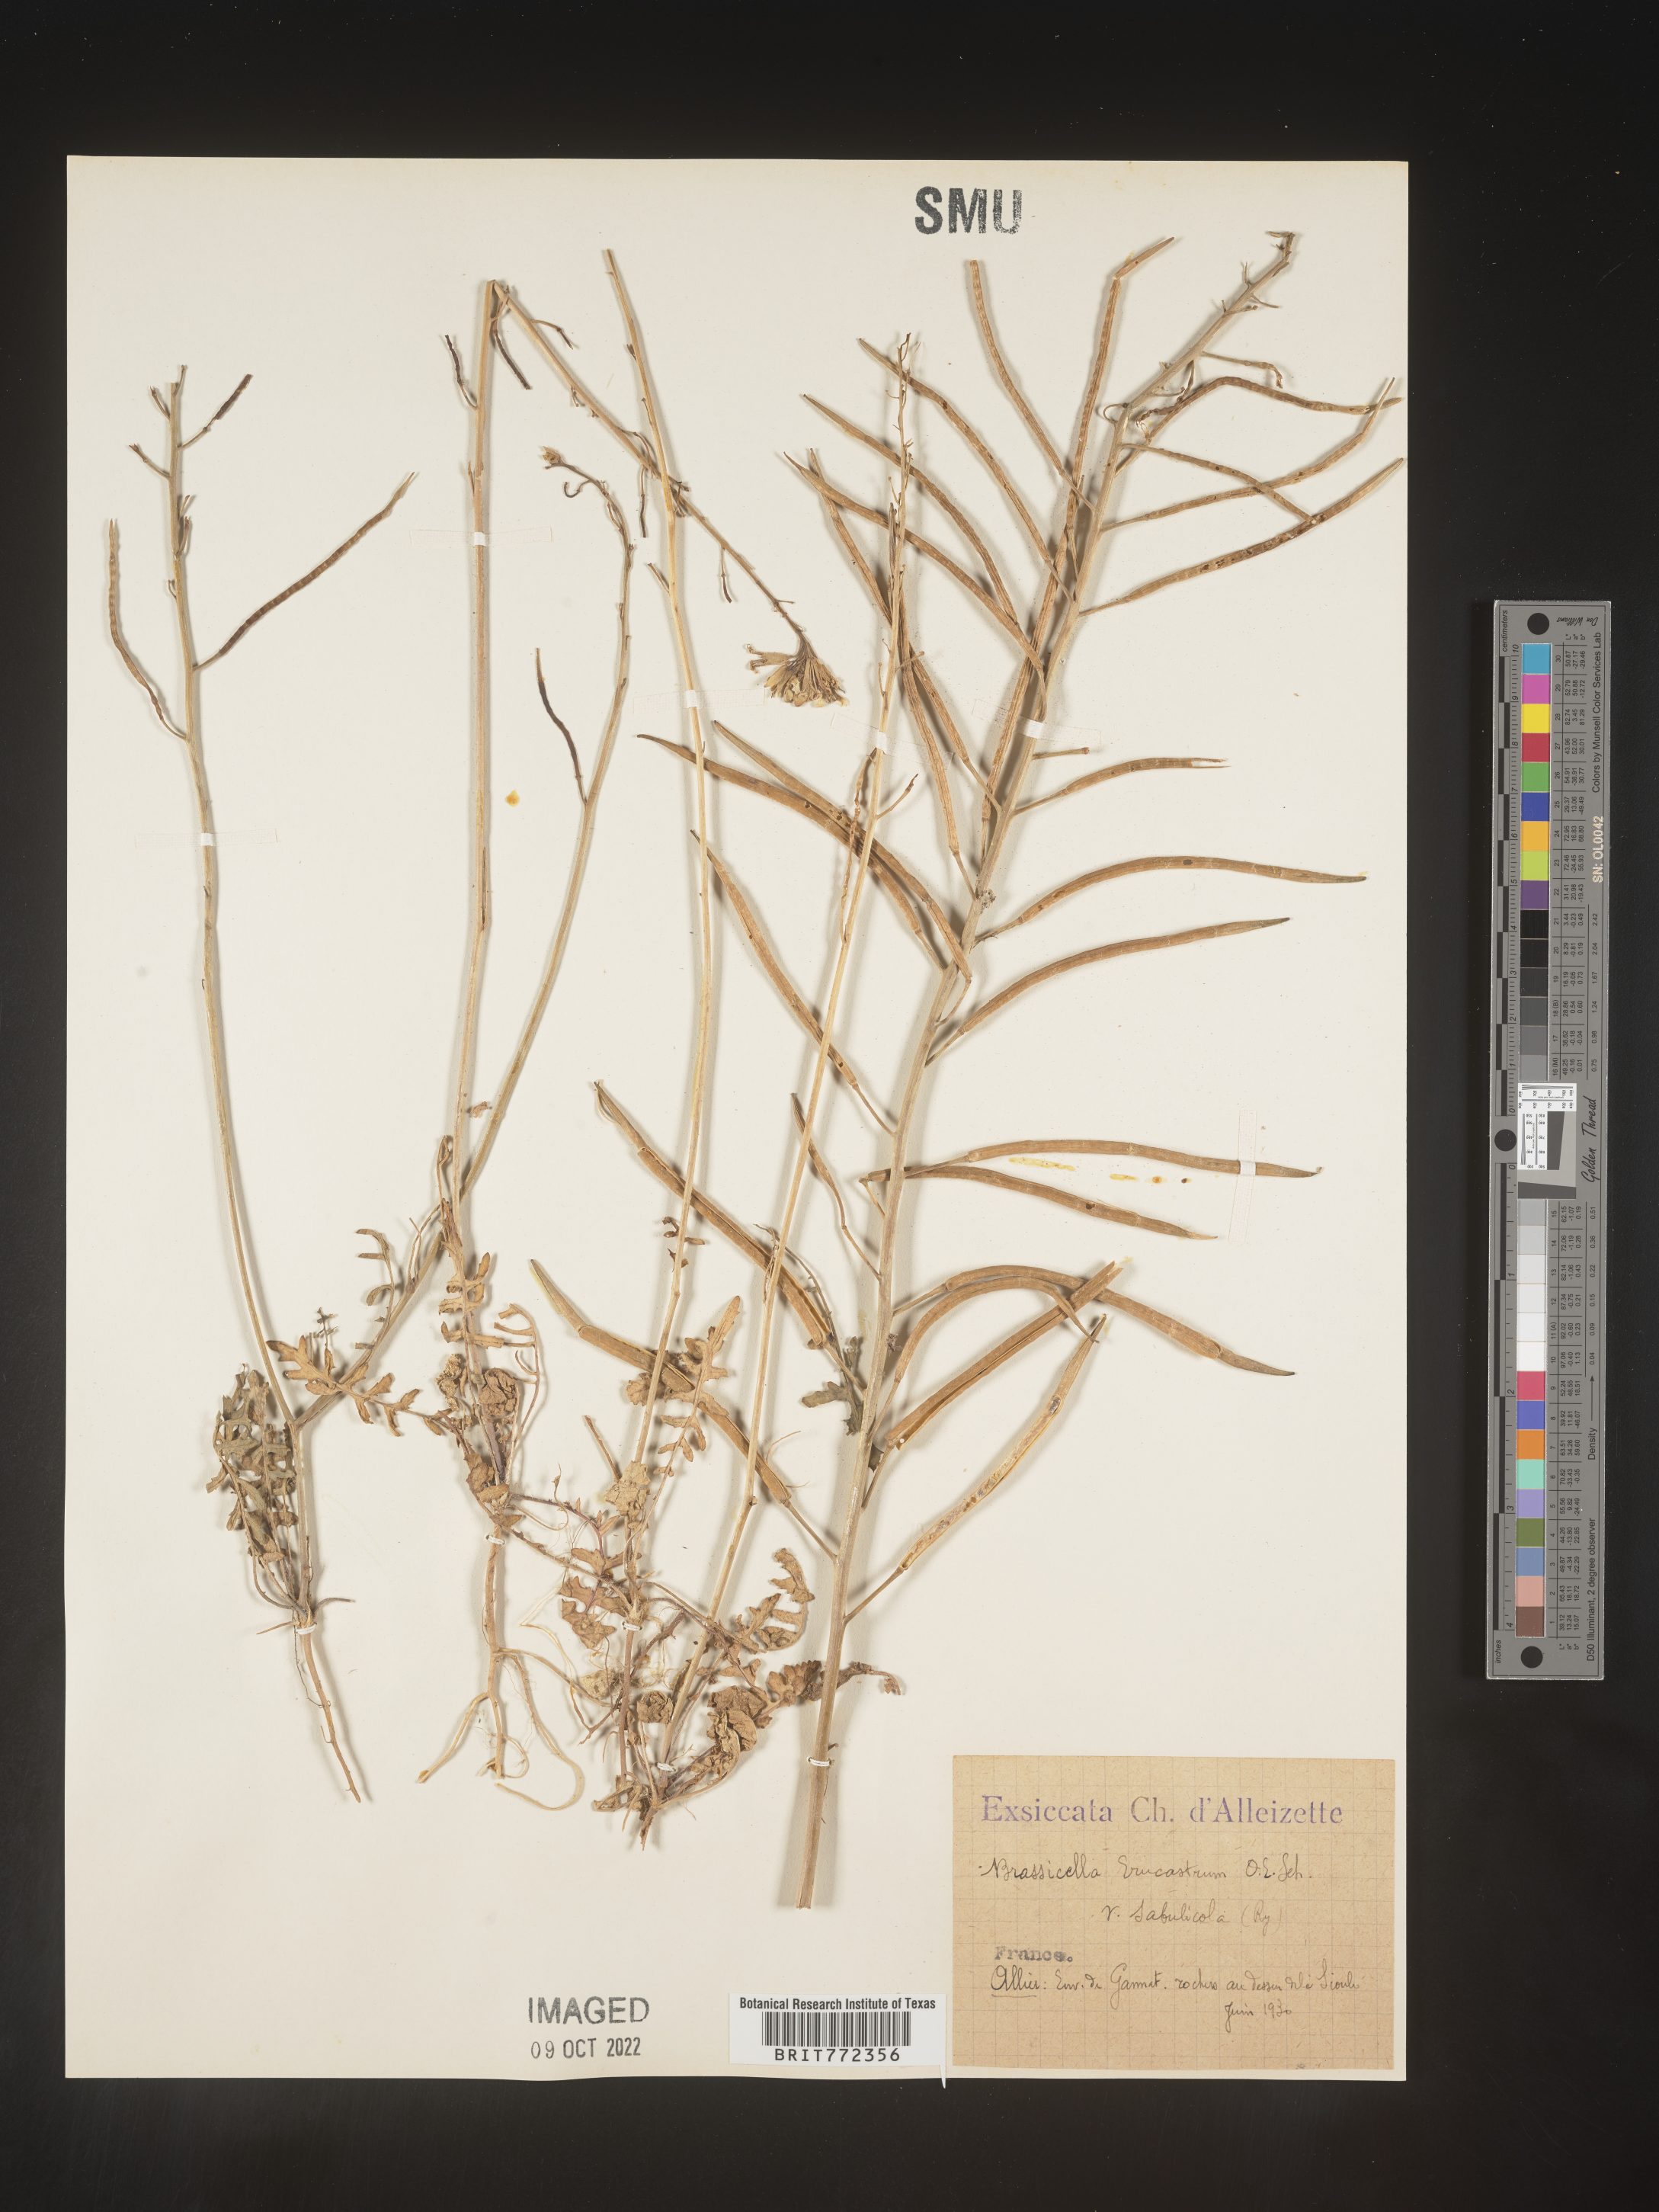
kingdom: Plantae
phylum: Tracheophyta
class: Magnoliopsida
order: Brassicales
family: Brassicaceae
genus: Brassicella
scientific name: Brassicella
